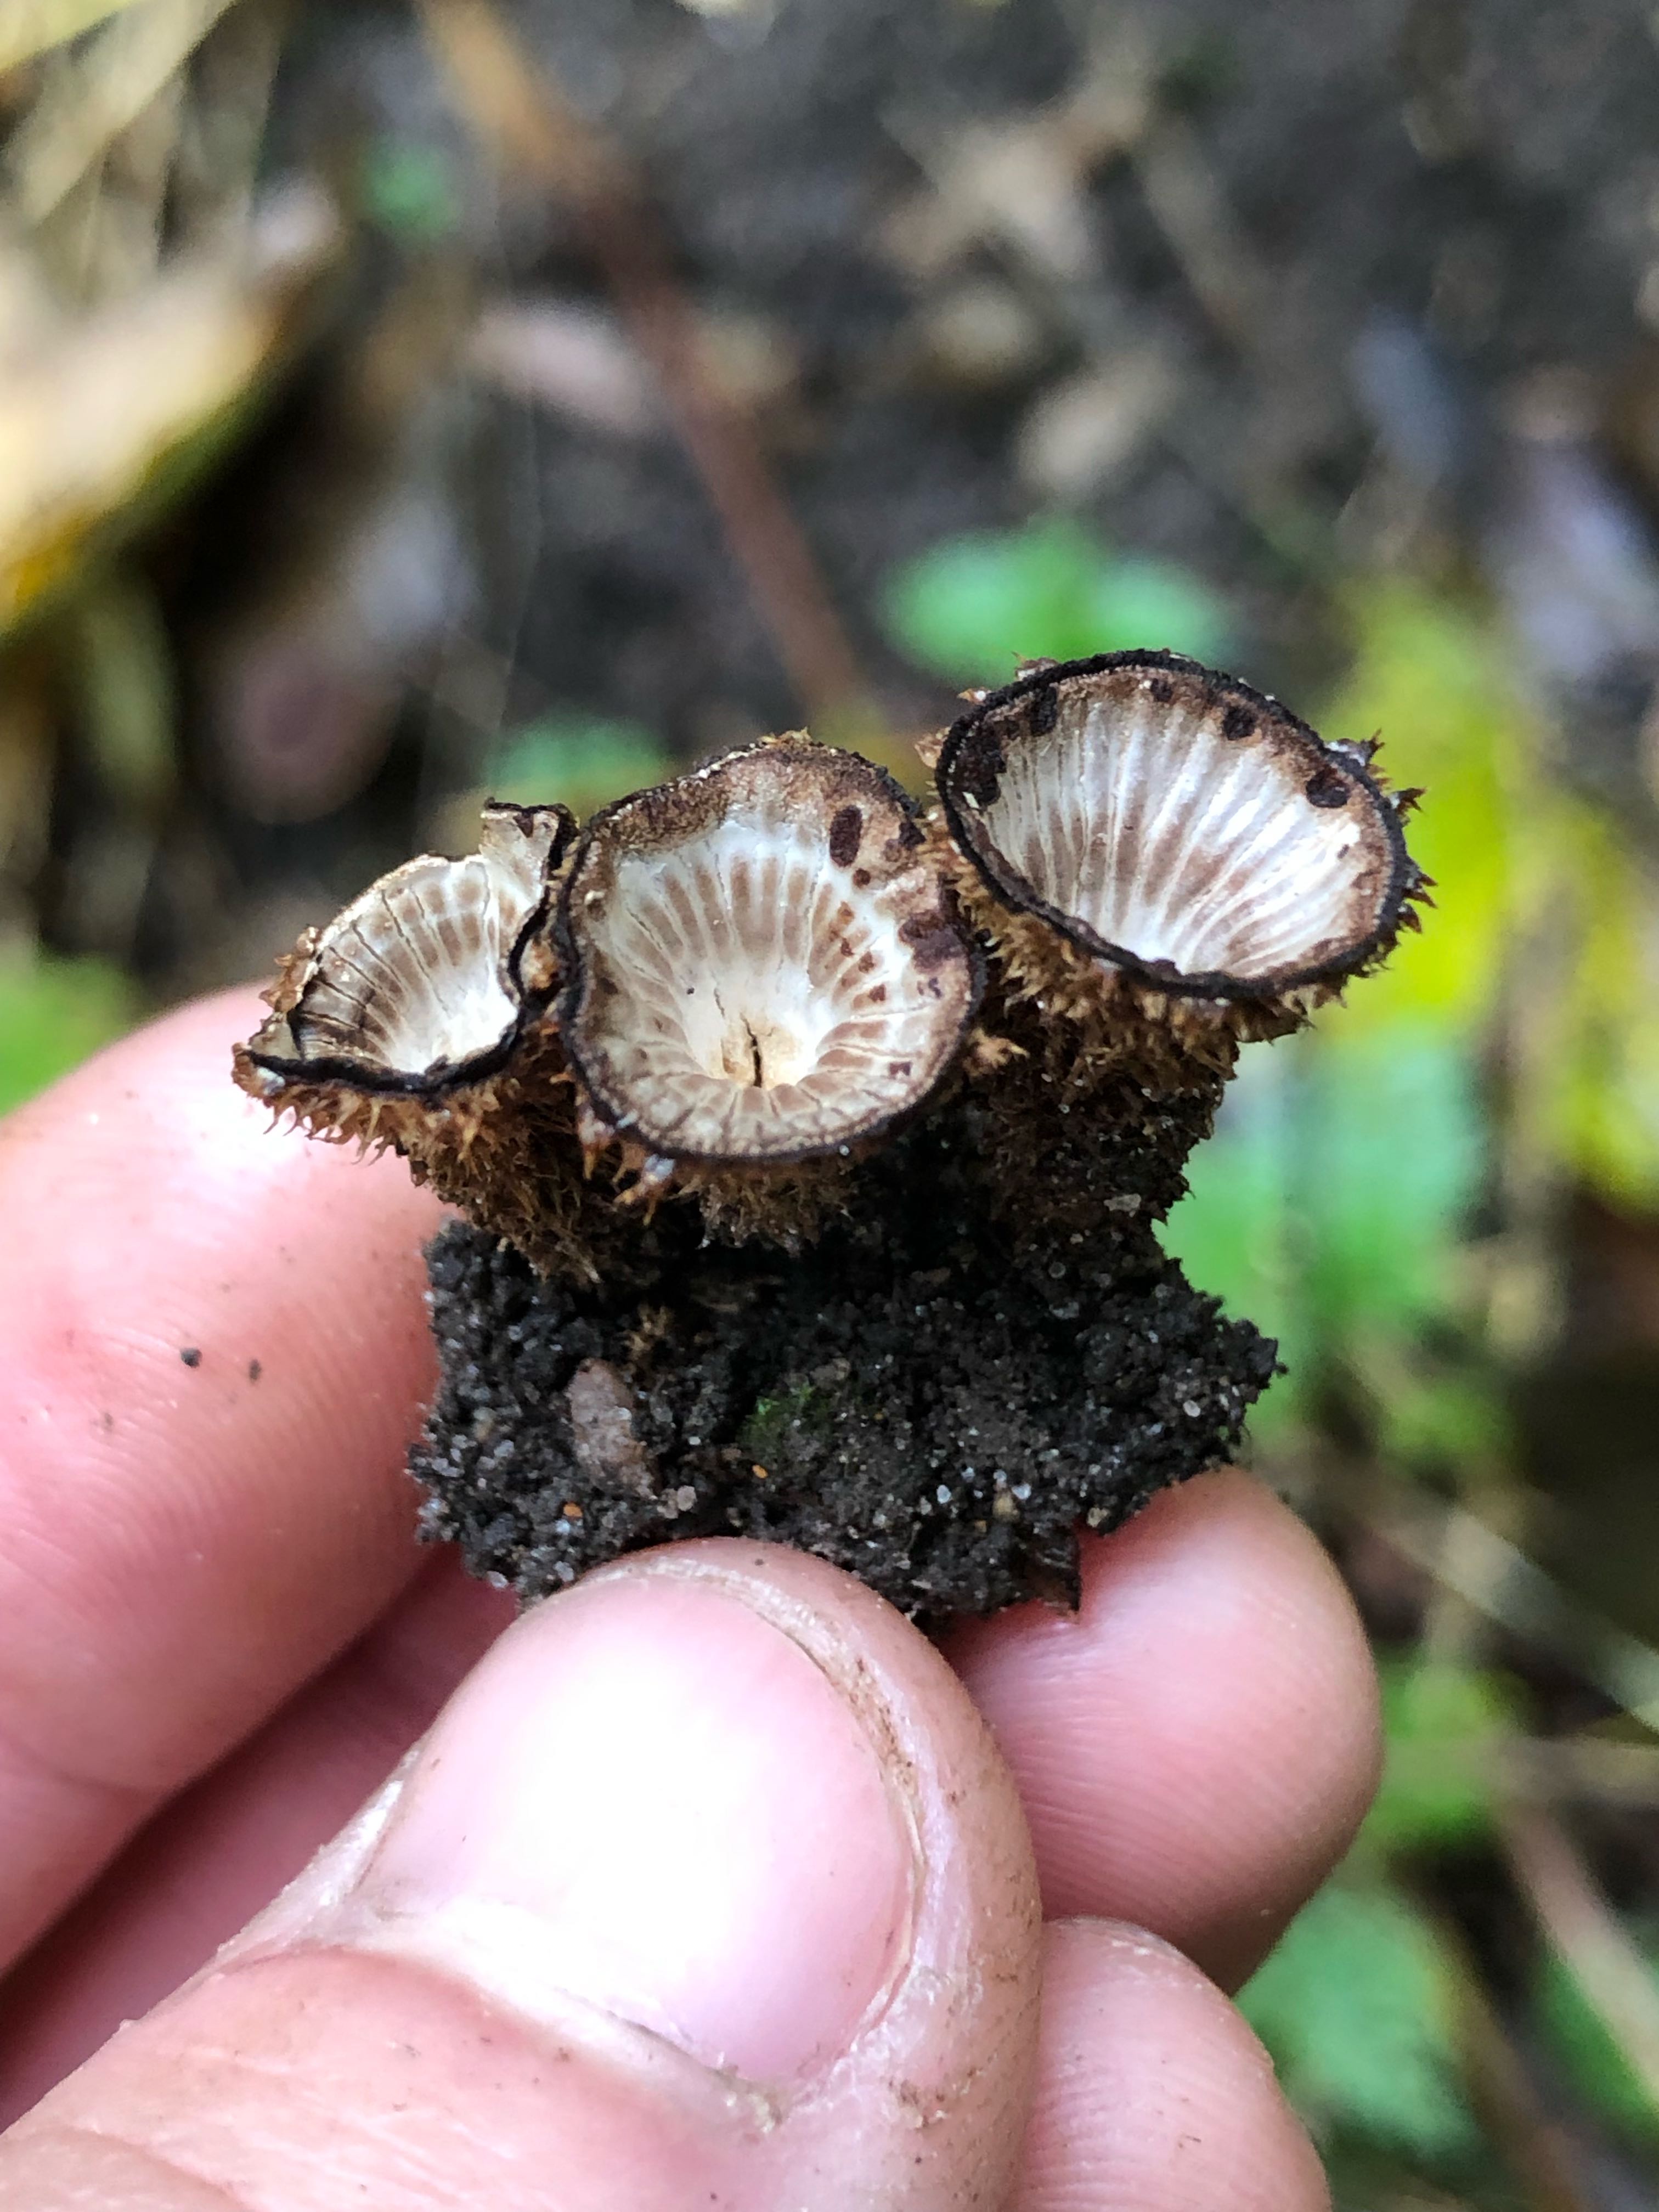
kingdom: Fungi
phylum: Basidiomycota
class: Agaricomycetes
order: Agaricales
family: Agaricaceae
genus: Cyathus
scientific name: Cyathus striatus
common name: stribet redesvamp
